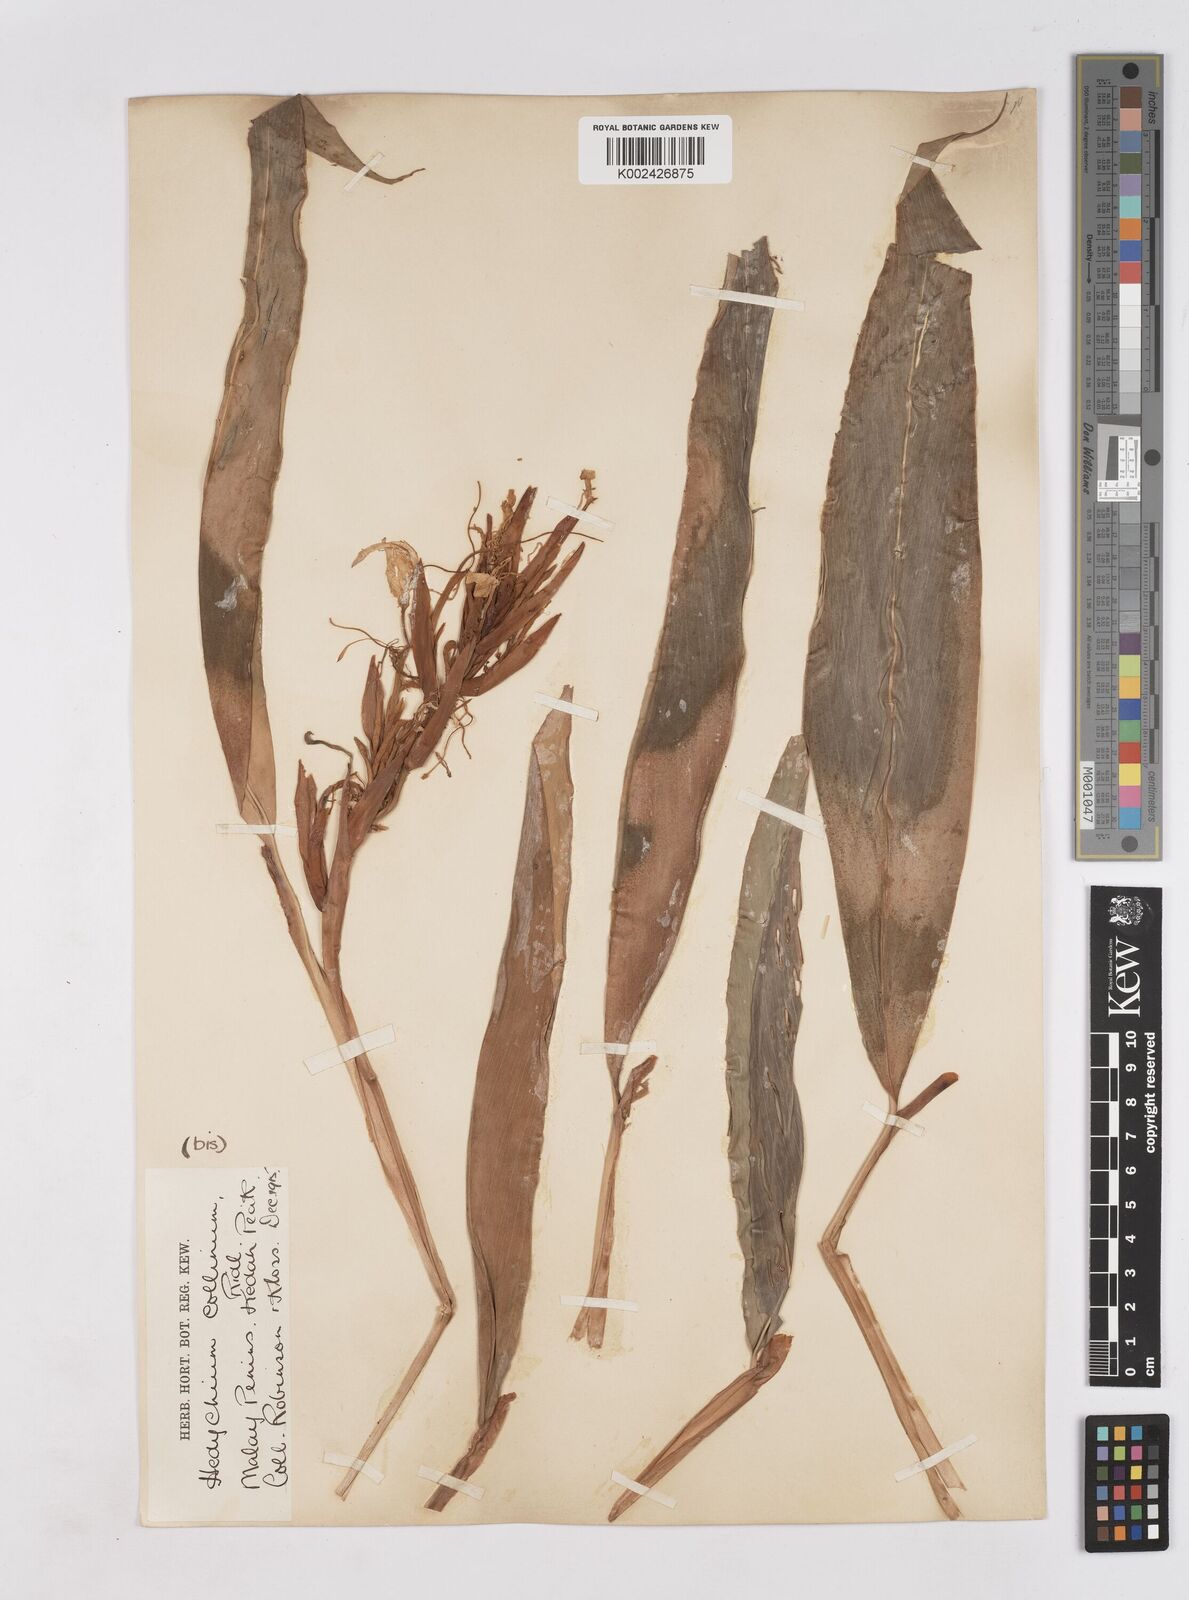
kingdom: Plantae
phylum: Tracheophyta
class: Liliopsida
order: Zingiberales
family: Zingiberaceae
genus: Hedychium
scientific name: Hedychium collinum
